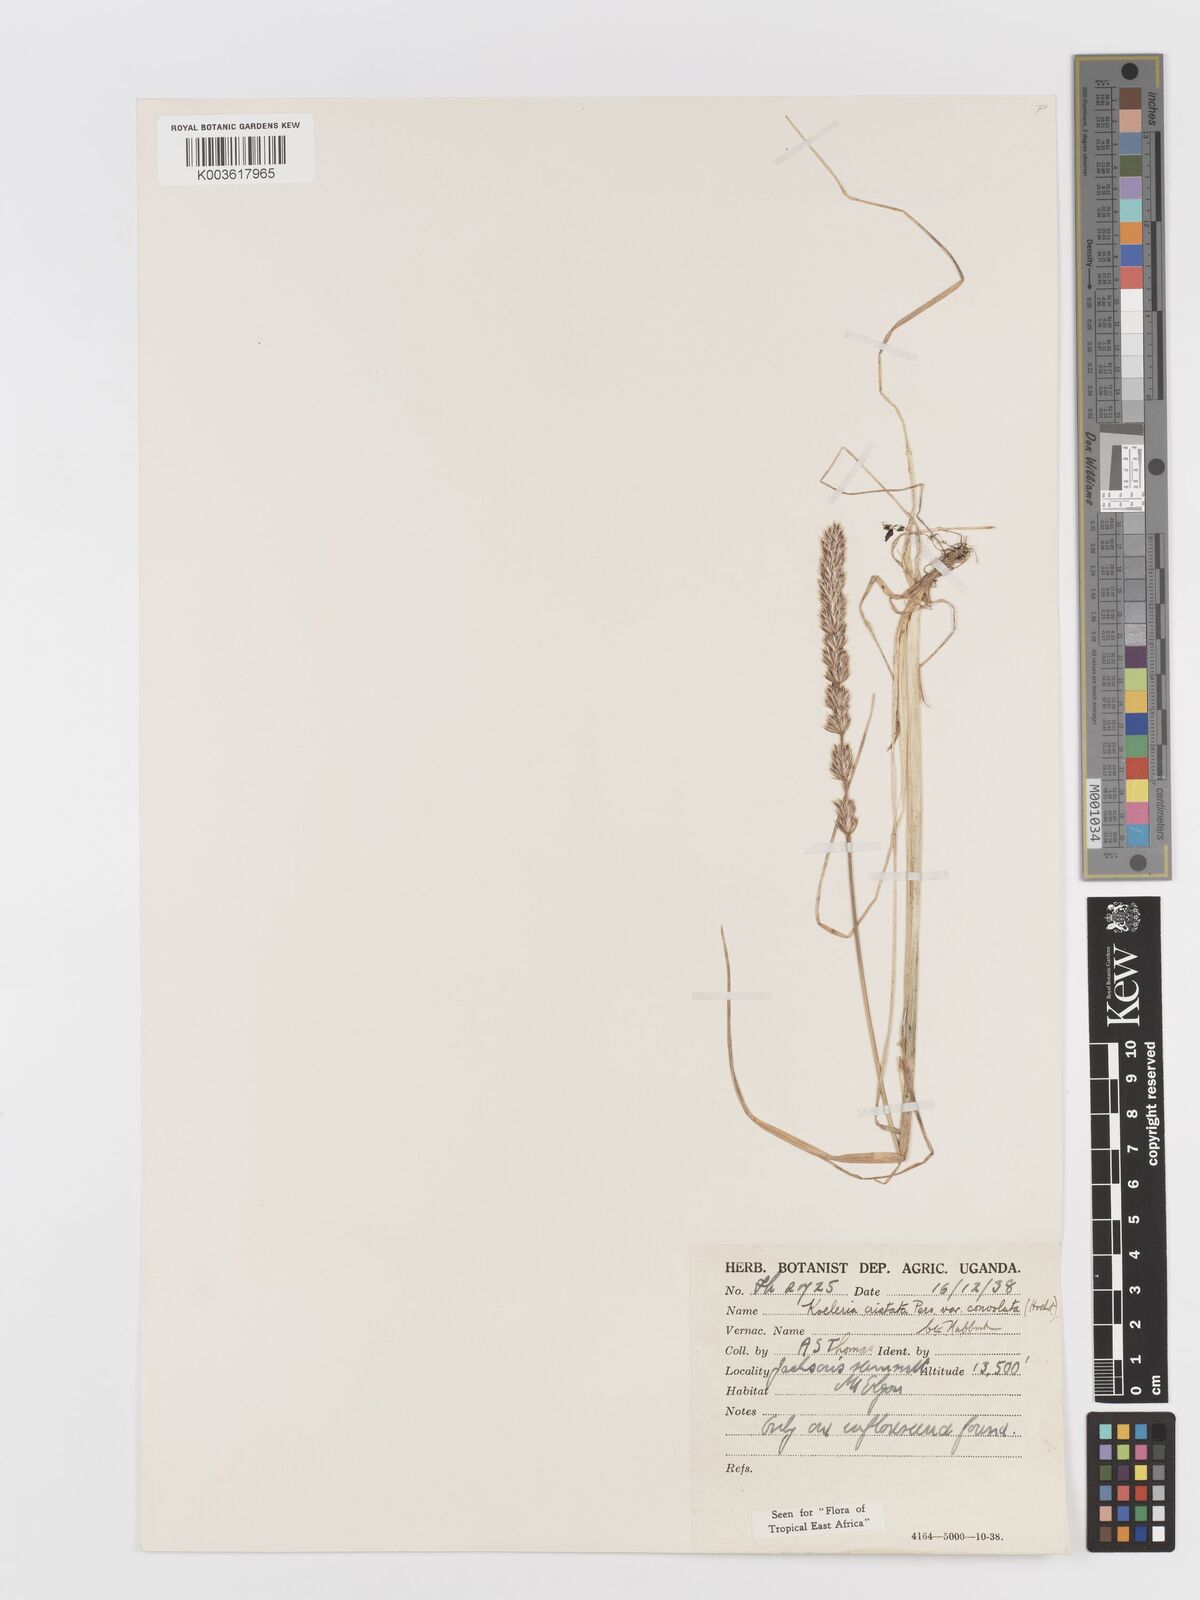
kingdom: Plantae
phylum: Tracheophyta
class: Liliopsida
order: Poales
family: Poaceae
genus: Koeleria
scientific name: Koeleria capensis
